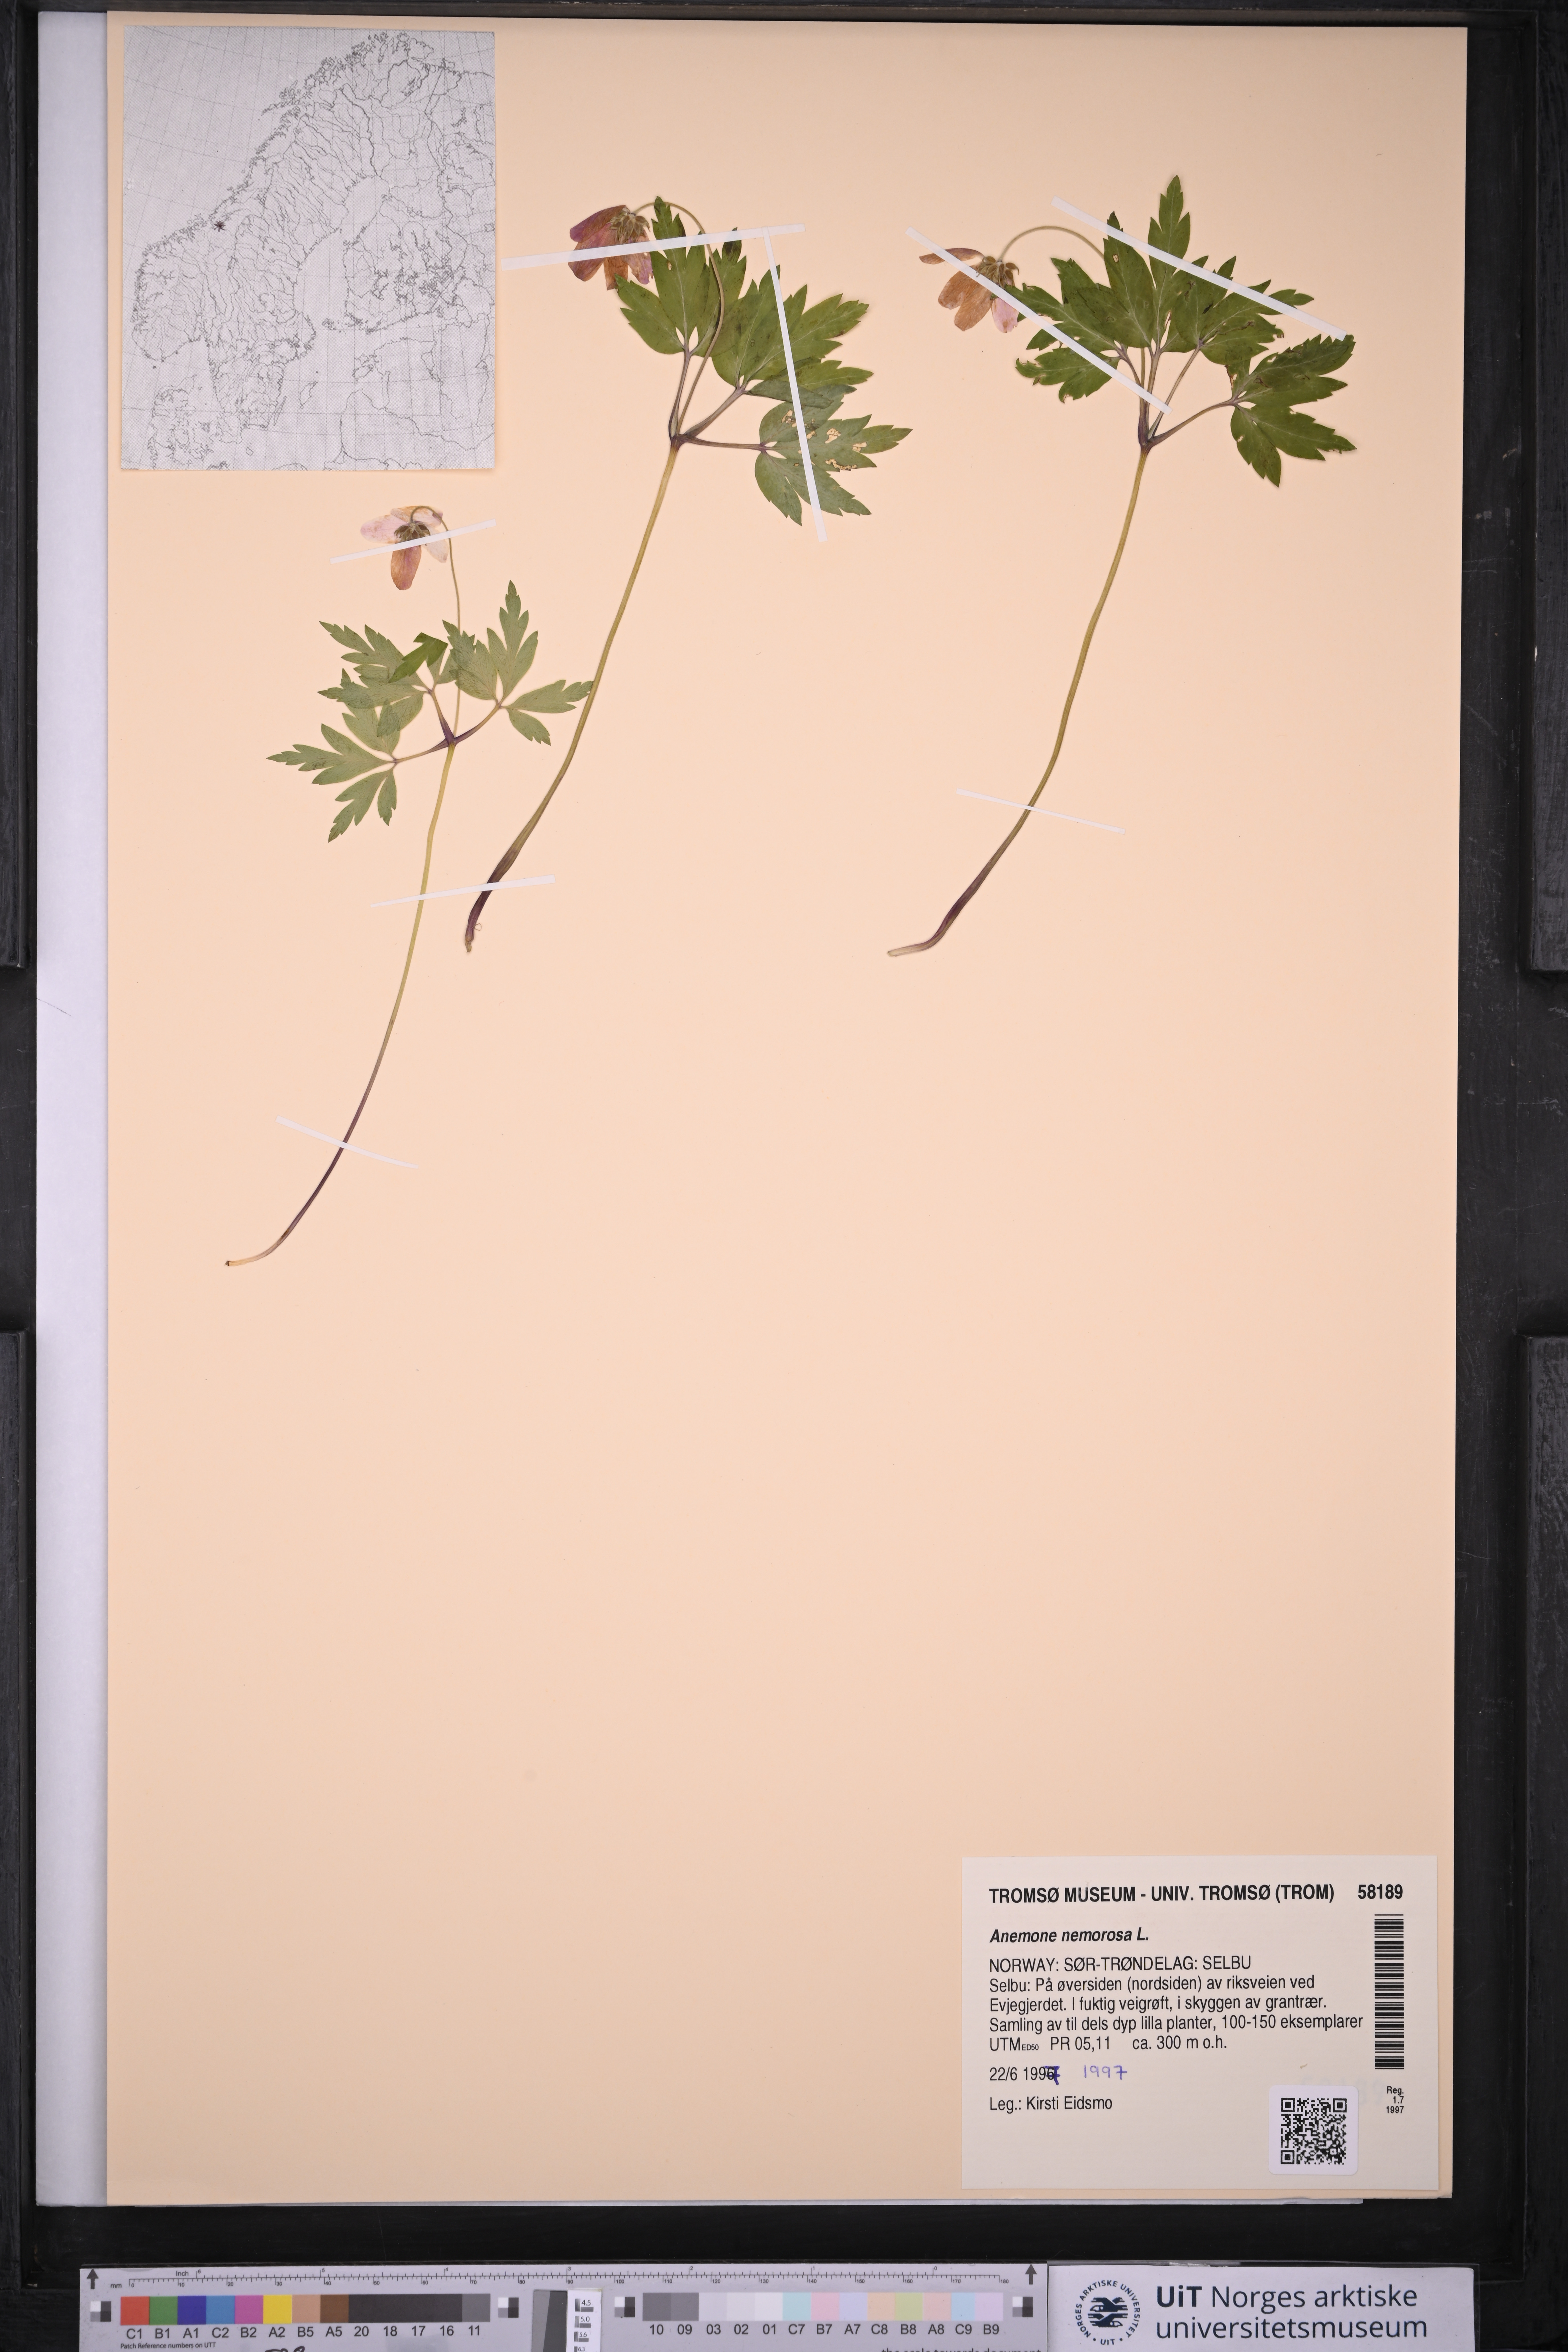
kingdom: Plantae
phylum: Tracheophyta
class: Magnoliopsida
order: Ranunculales
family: Ranunculaceae
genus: Anemone
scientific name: Anemone nemorosa
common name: Wood anemone
